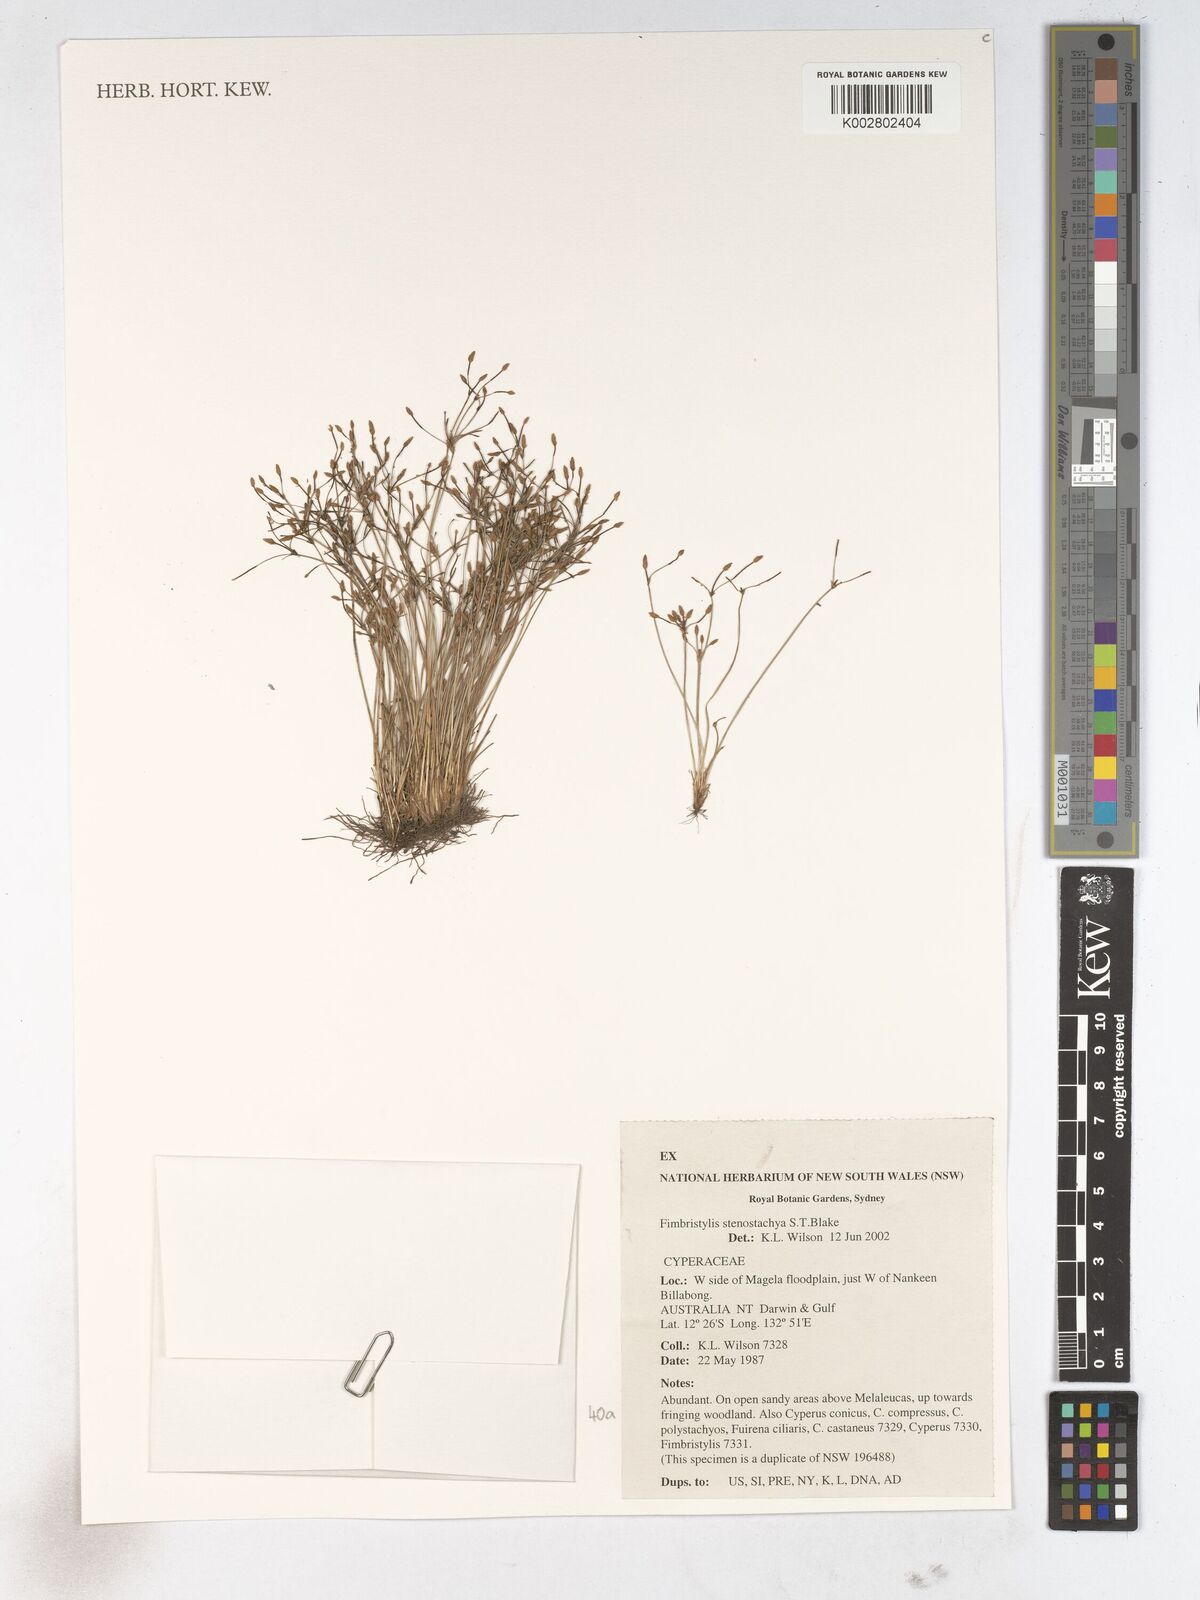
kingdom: Plantae
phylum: Tracheophyta
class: Liliopsida
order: Poales
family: Cyperaceae
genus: Fimbristylis
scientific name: Fimbristylis stenostachya
